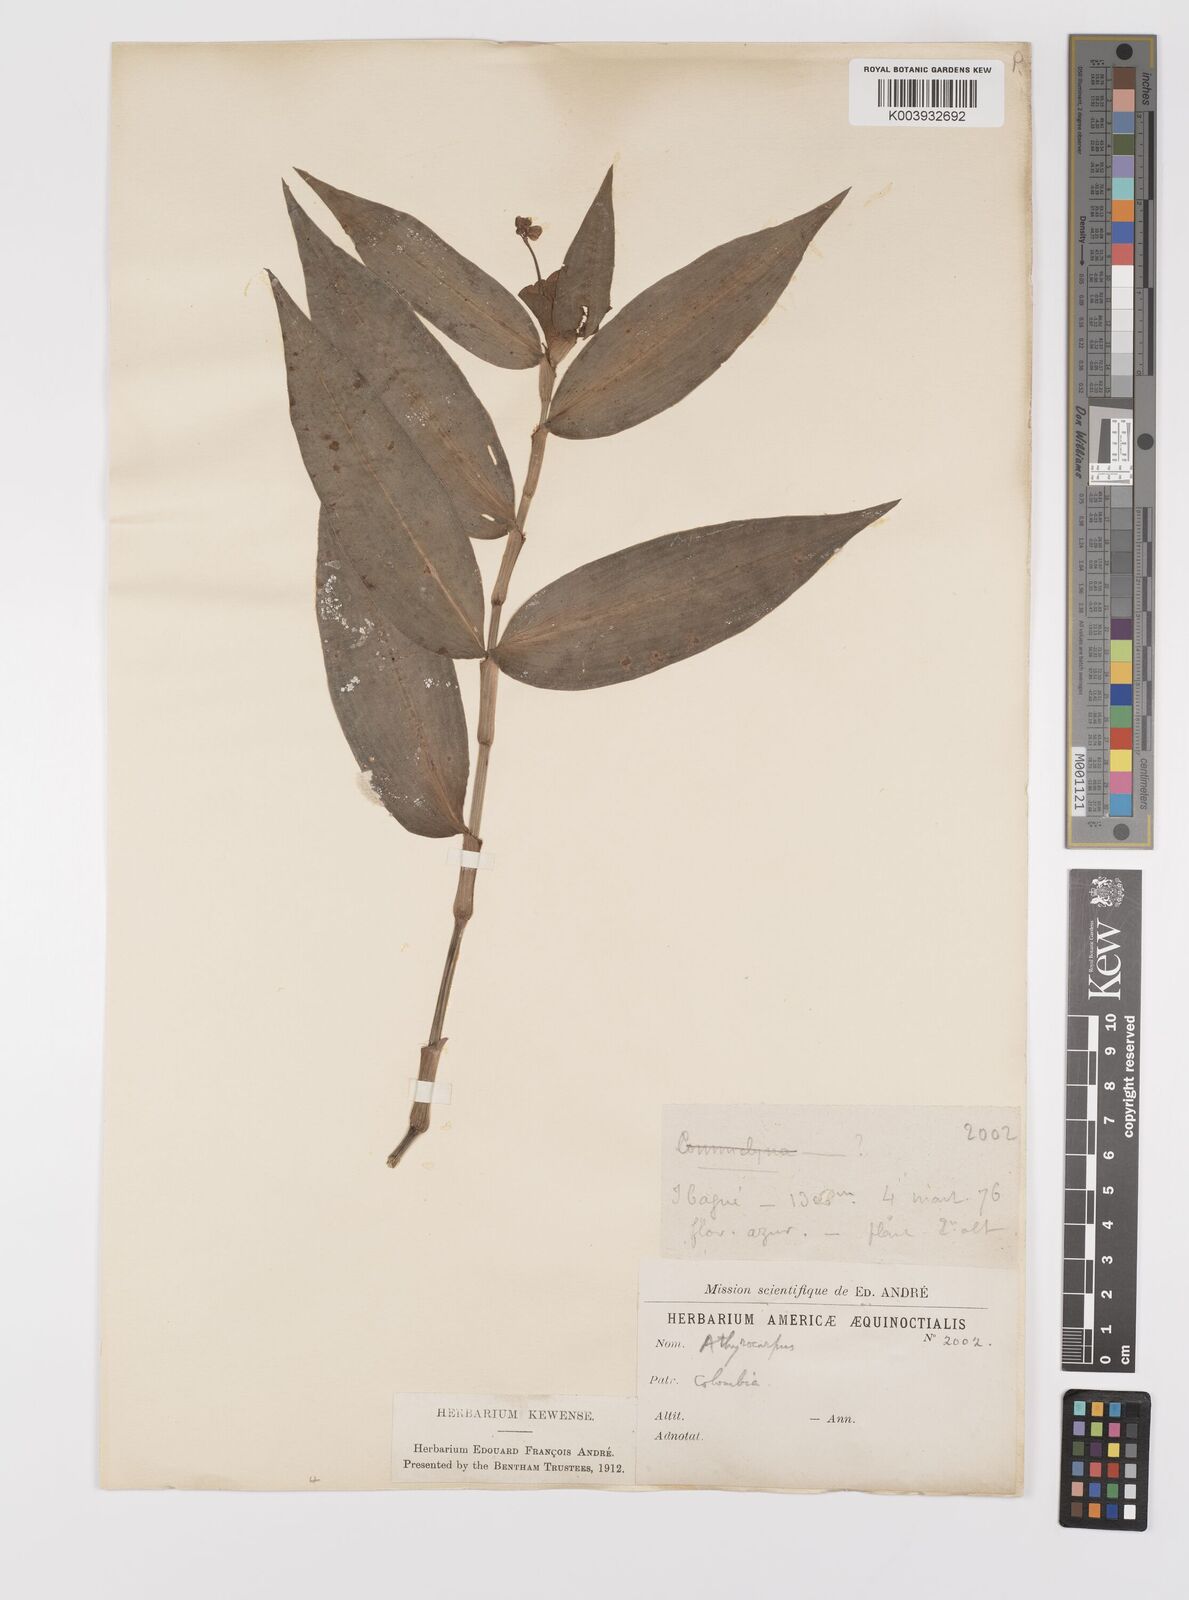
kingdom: Plantae
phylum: Tracheophyta
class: Liliopsida
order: Commelinales
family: Commelinaceae
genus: Commelina
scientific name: Commelina obliqua
